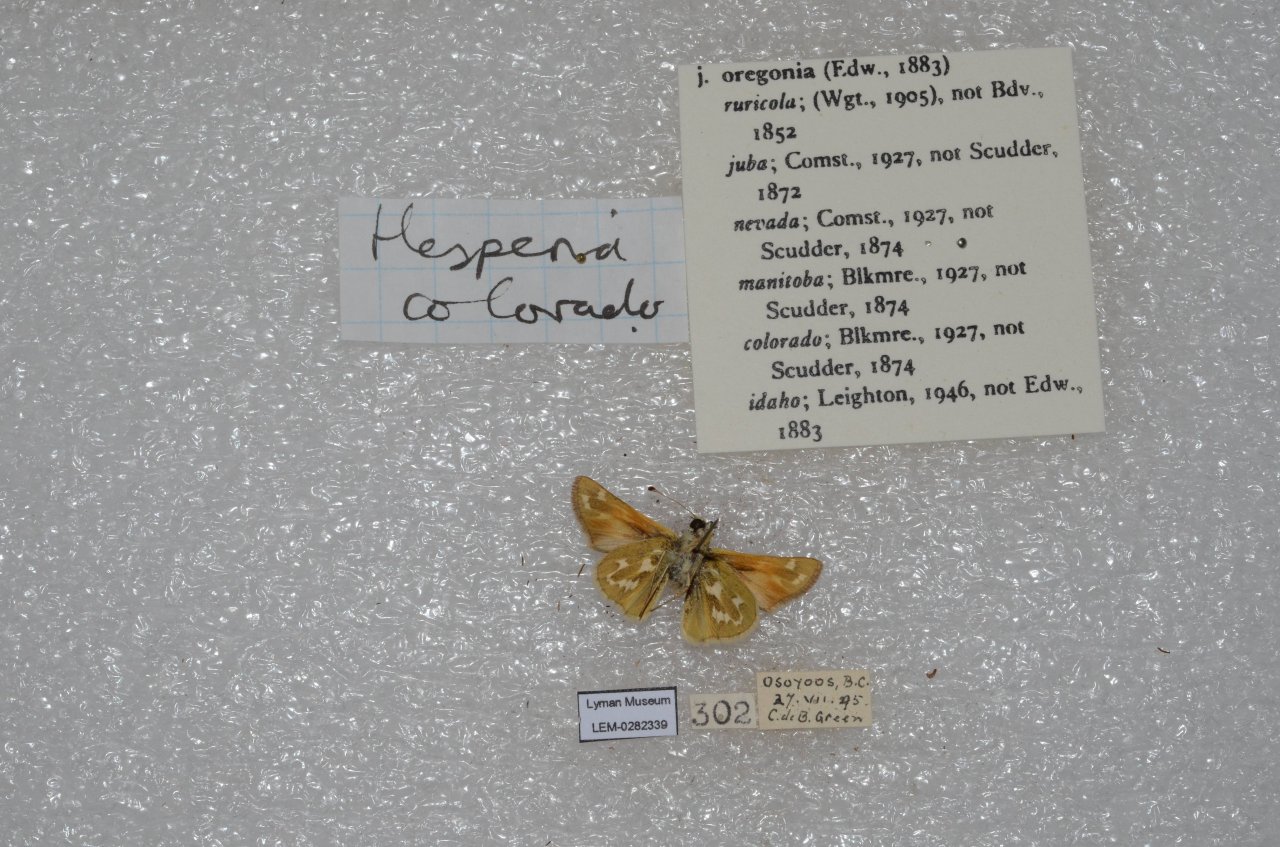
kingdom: Animalia
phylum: Arthropoda
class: Insecta
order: Lepidoptera
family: Hesperiidae
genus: Hesperia
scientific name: Hesperia comma
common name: Western Branded Skipper
